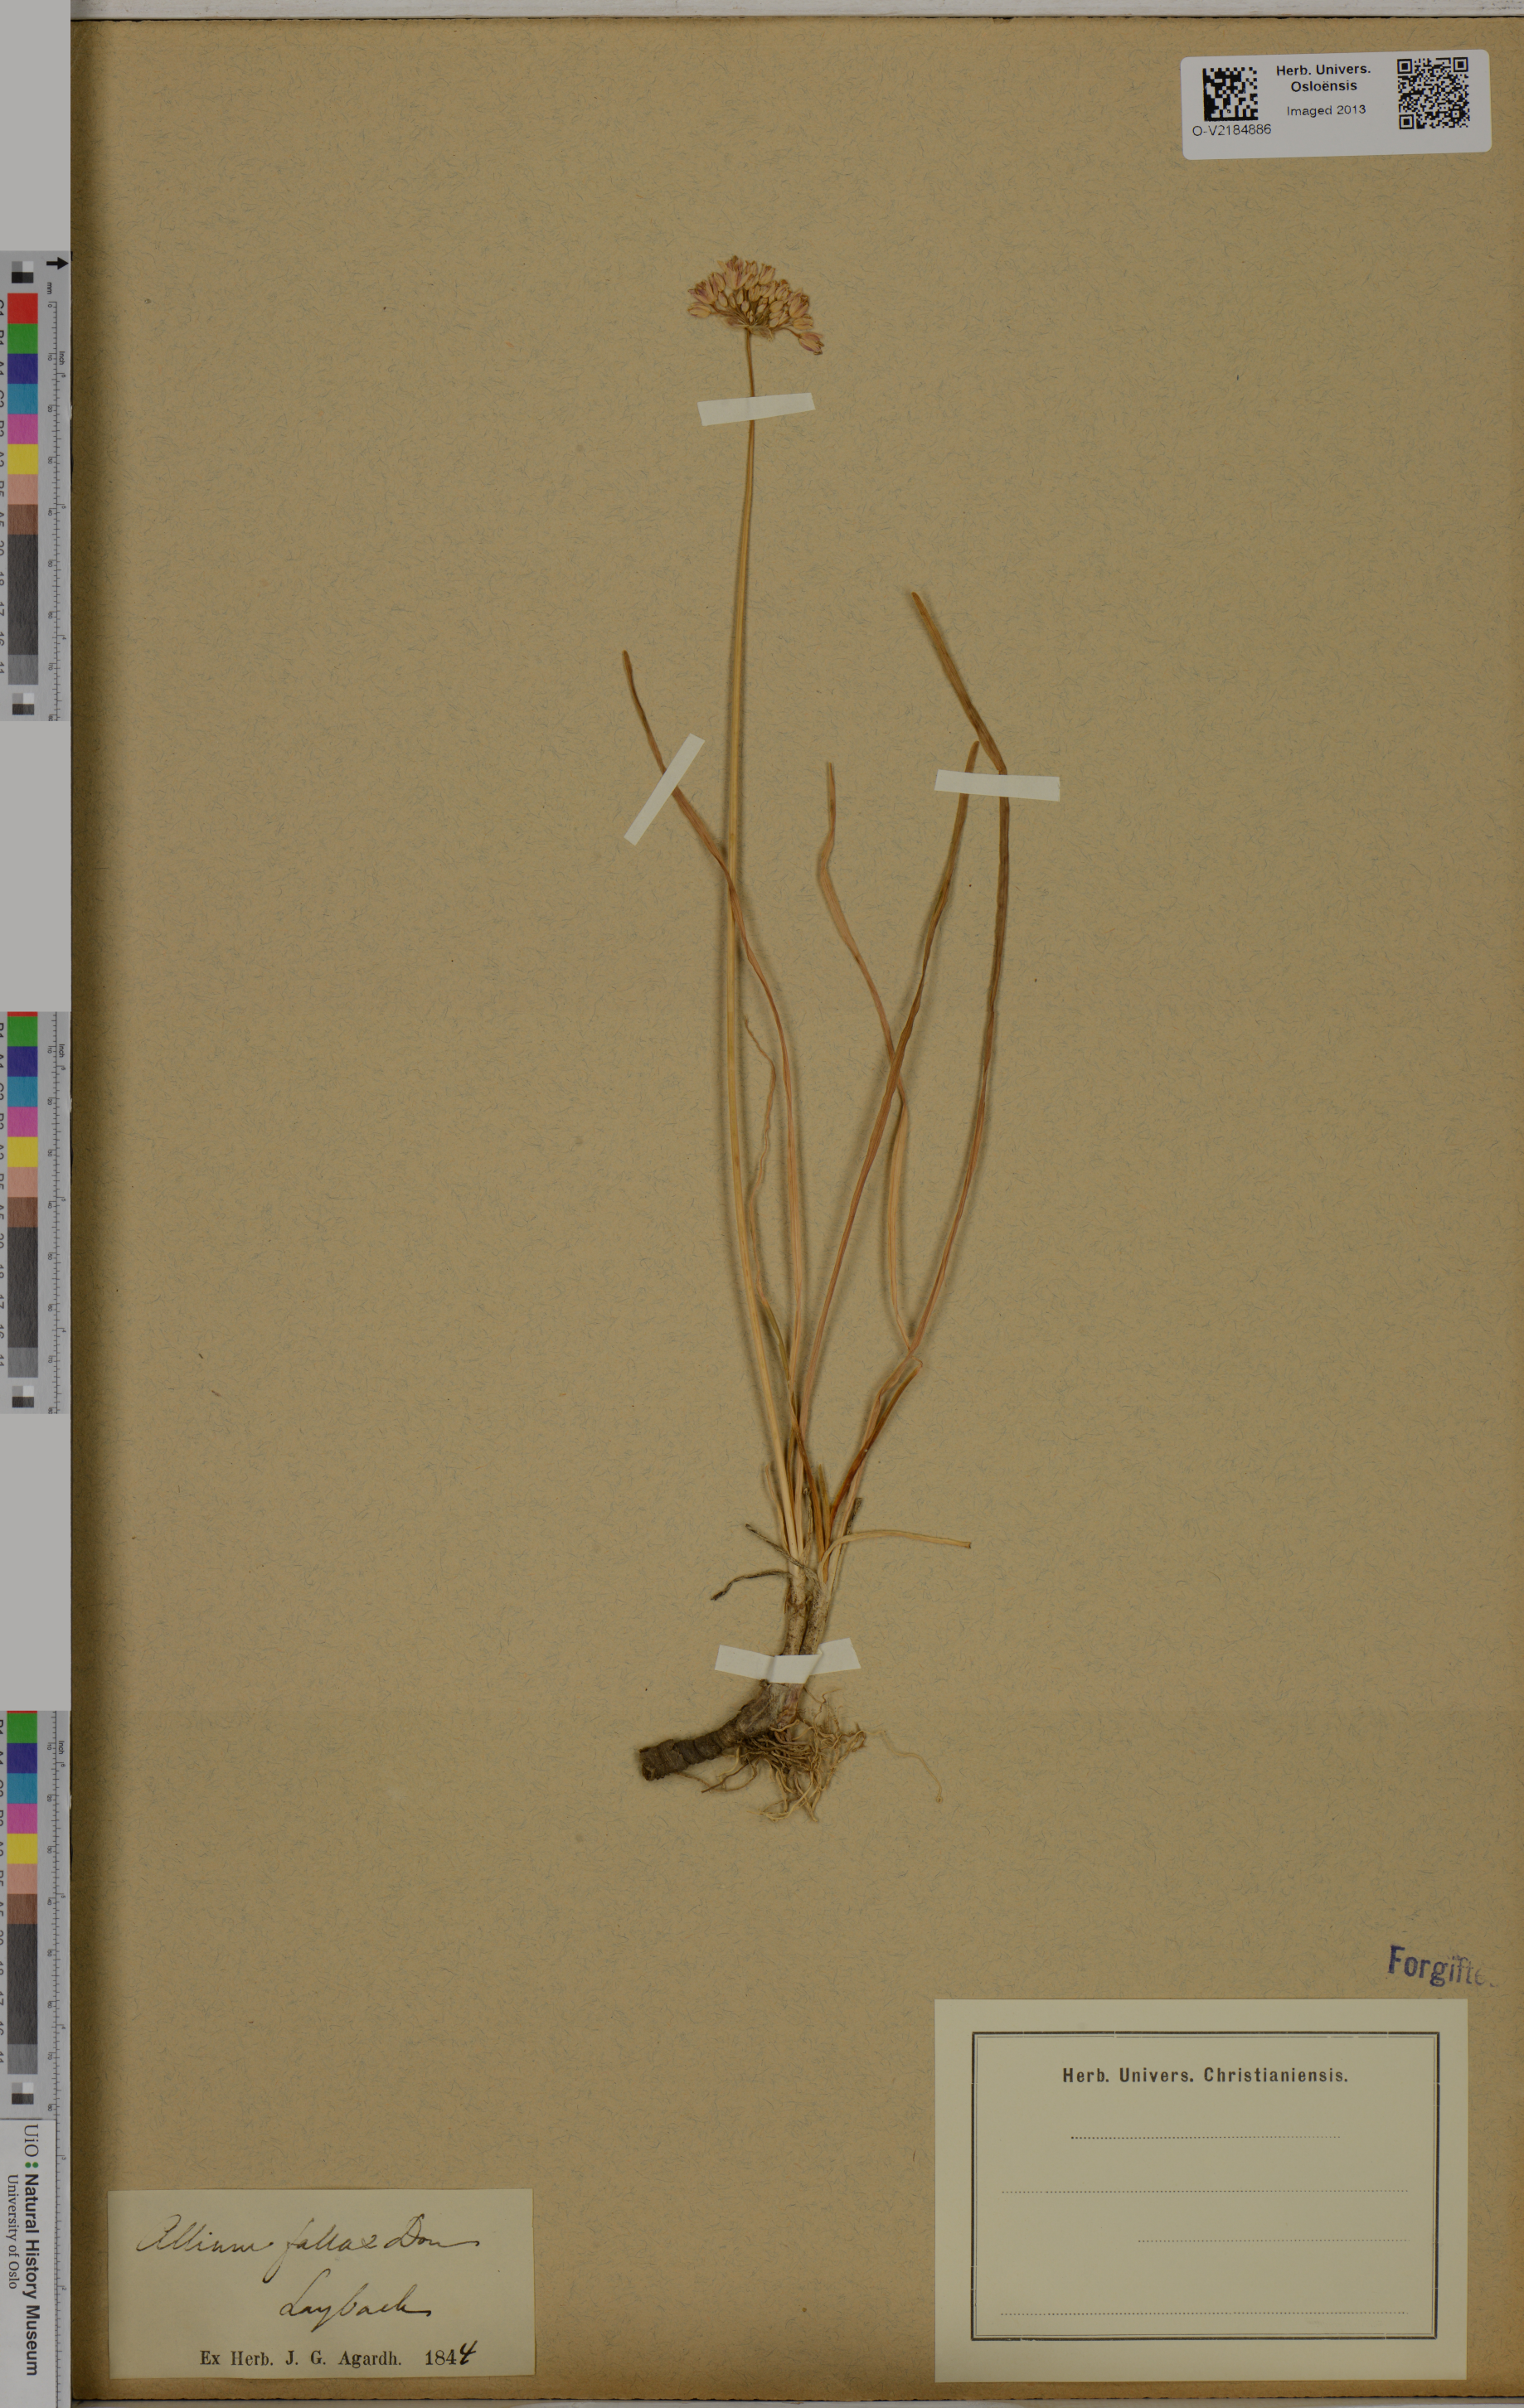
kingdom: Plantae
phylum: Tracheophyta
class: Liliopsida
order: Asparagales
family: Amaryllidaceae
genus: Allium
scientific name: Allium lusitanicum
